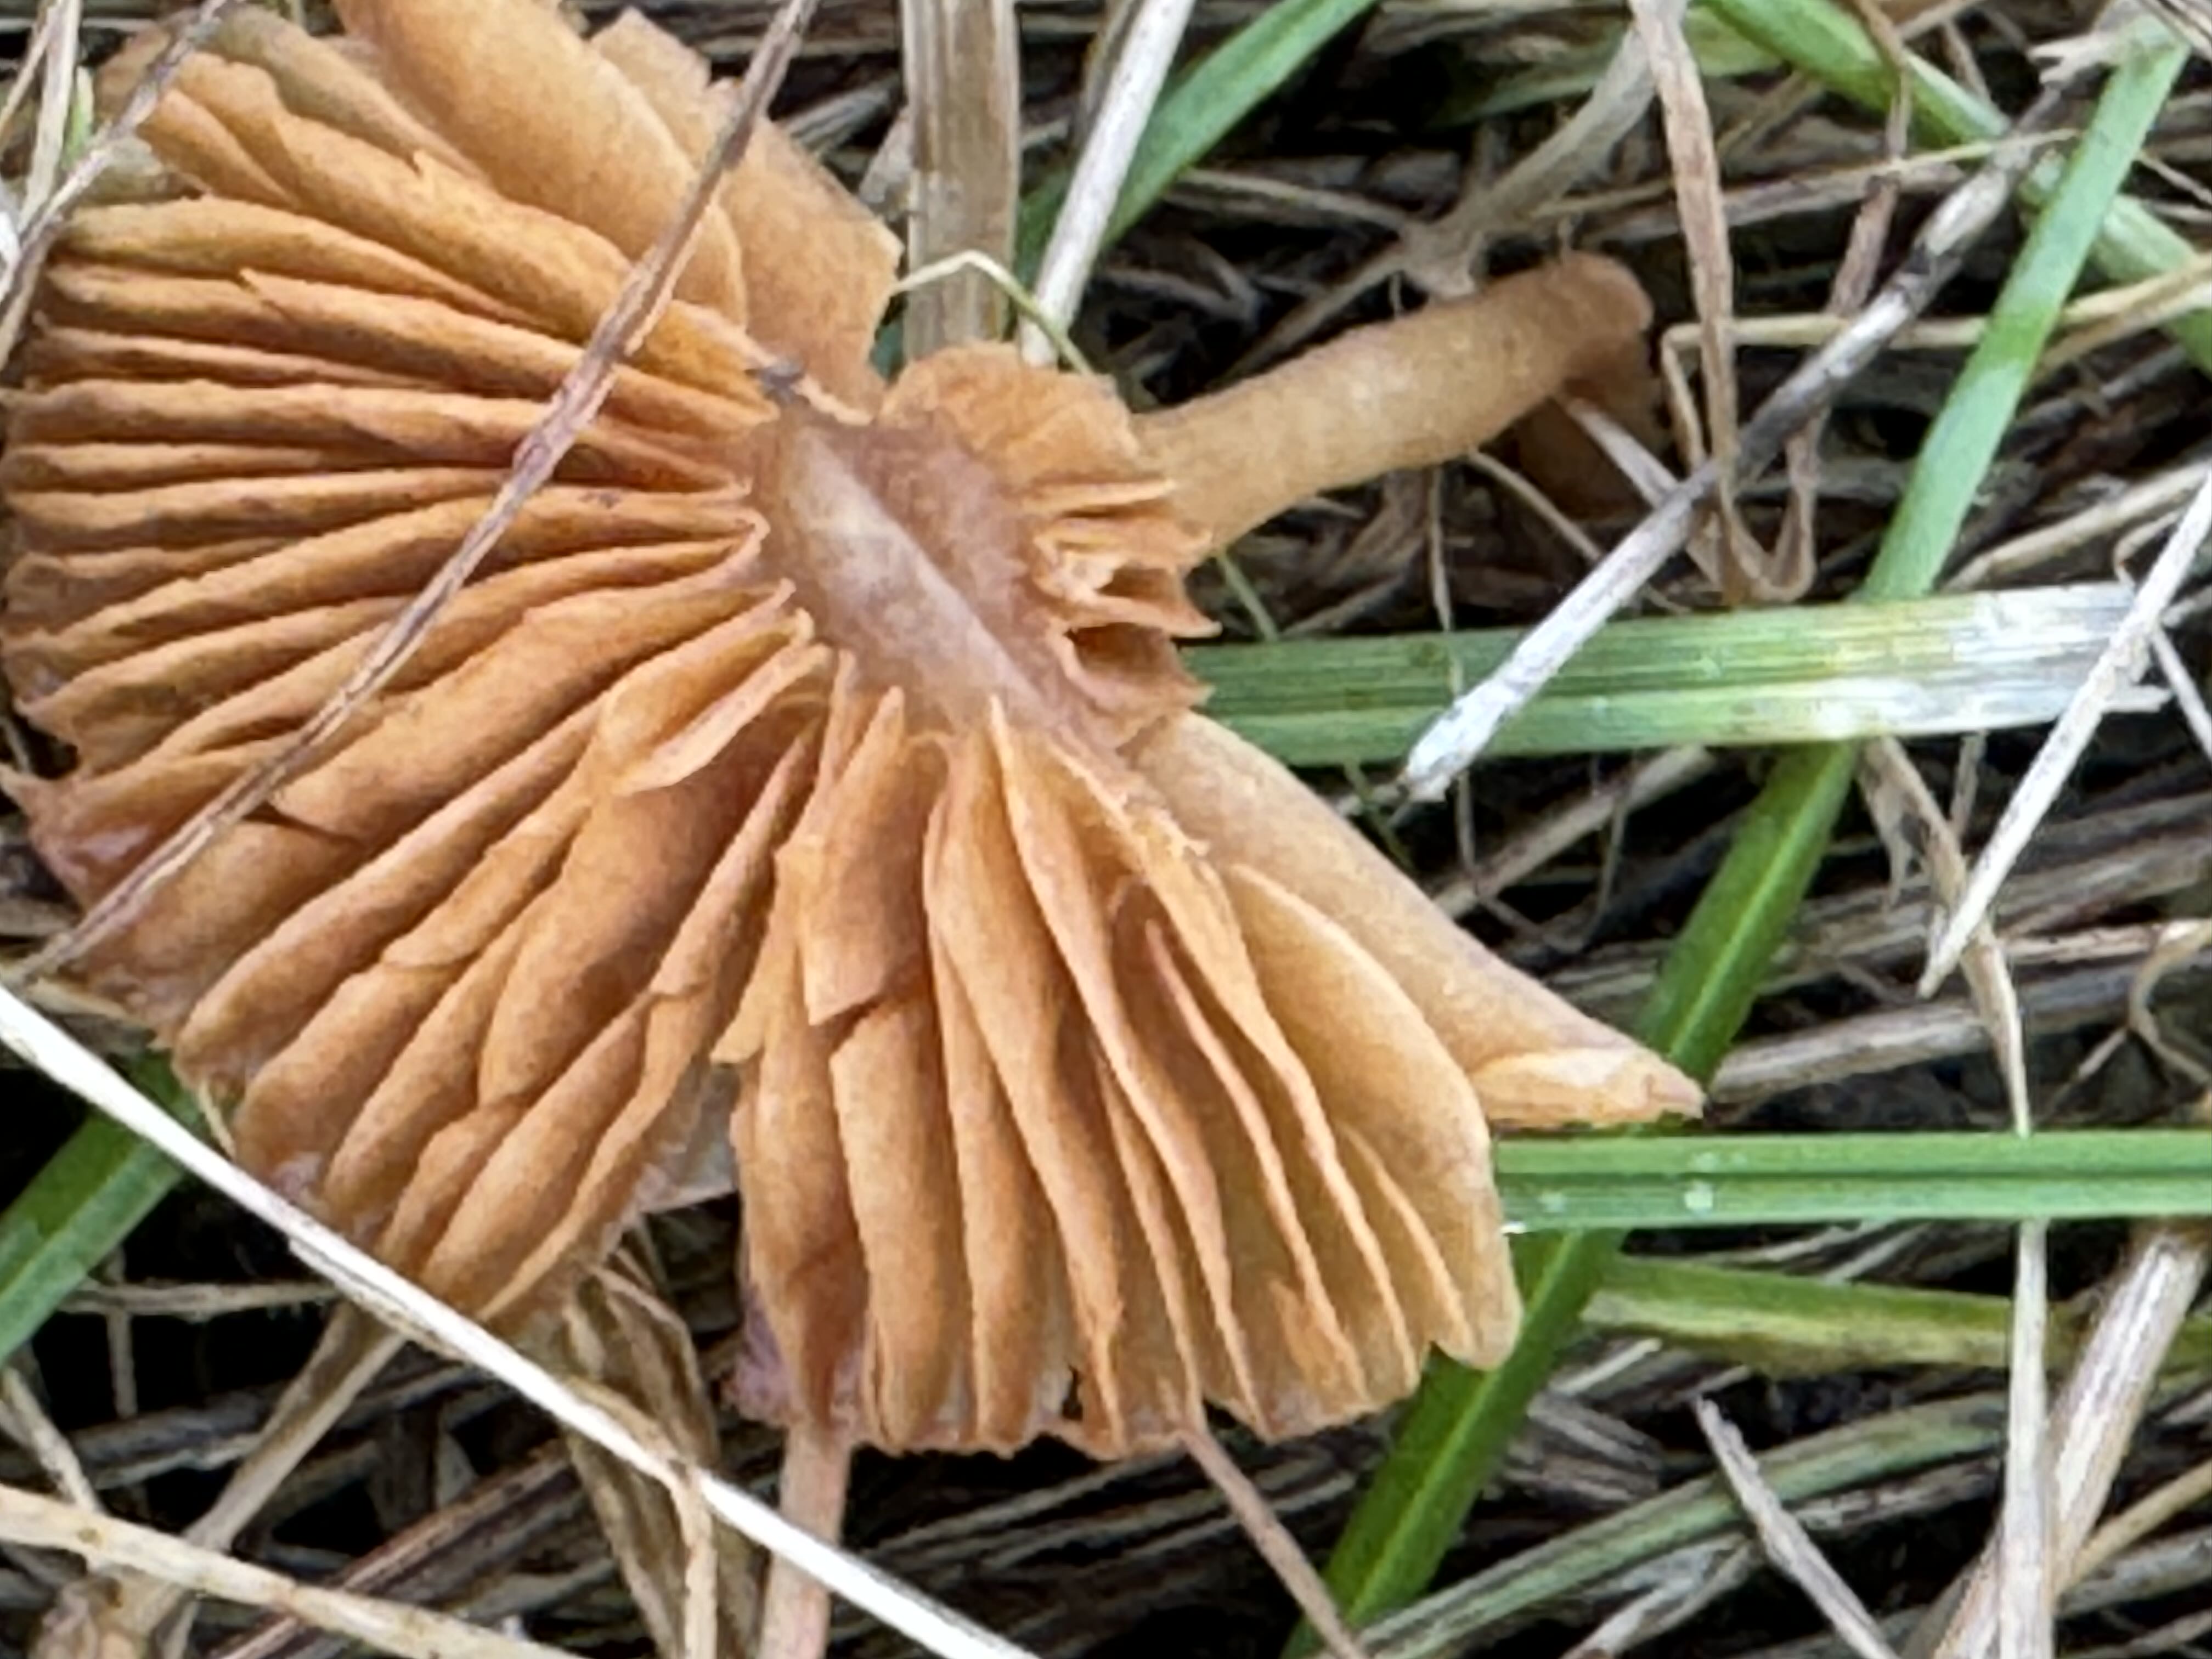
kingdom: Fungi
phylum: Basidiomycota
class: Agaricomycetes
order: Agaricales
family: Tubariaceae
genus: Tubaria
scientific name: Tubaria furfuracea
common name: kliddet fnughat
